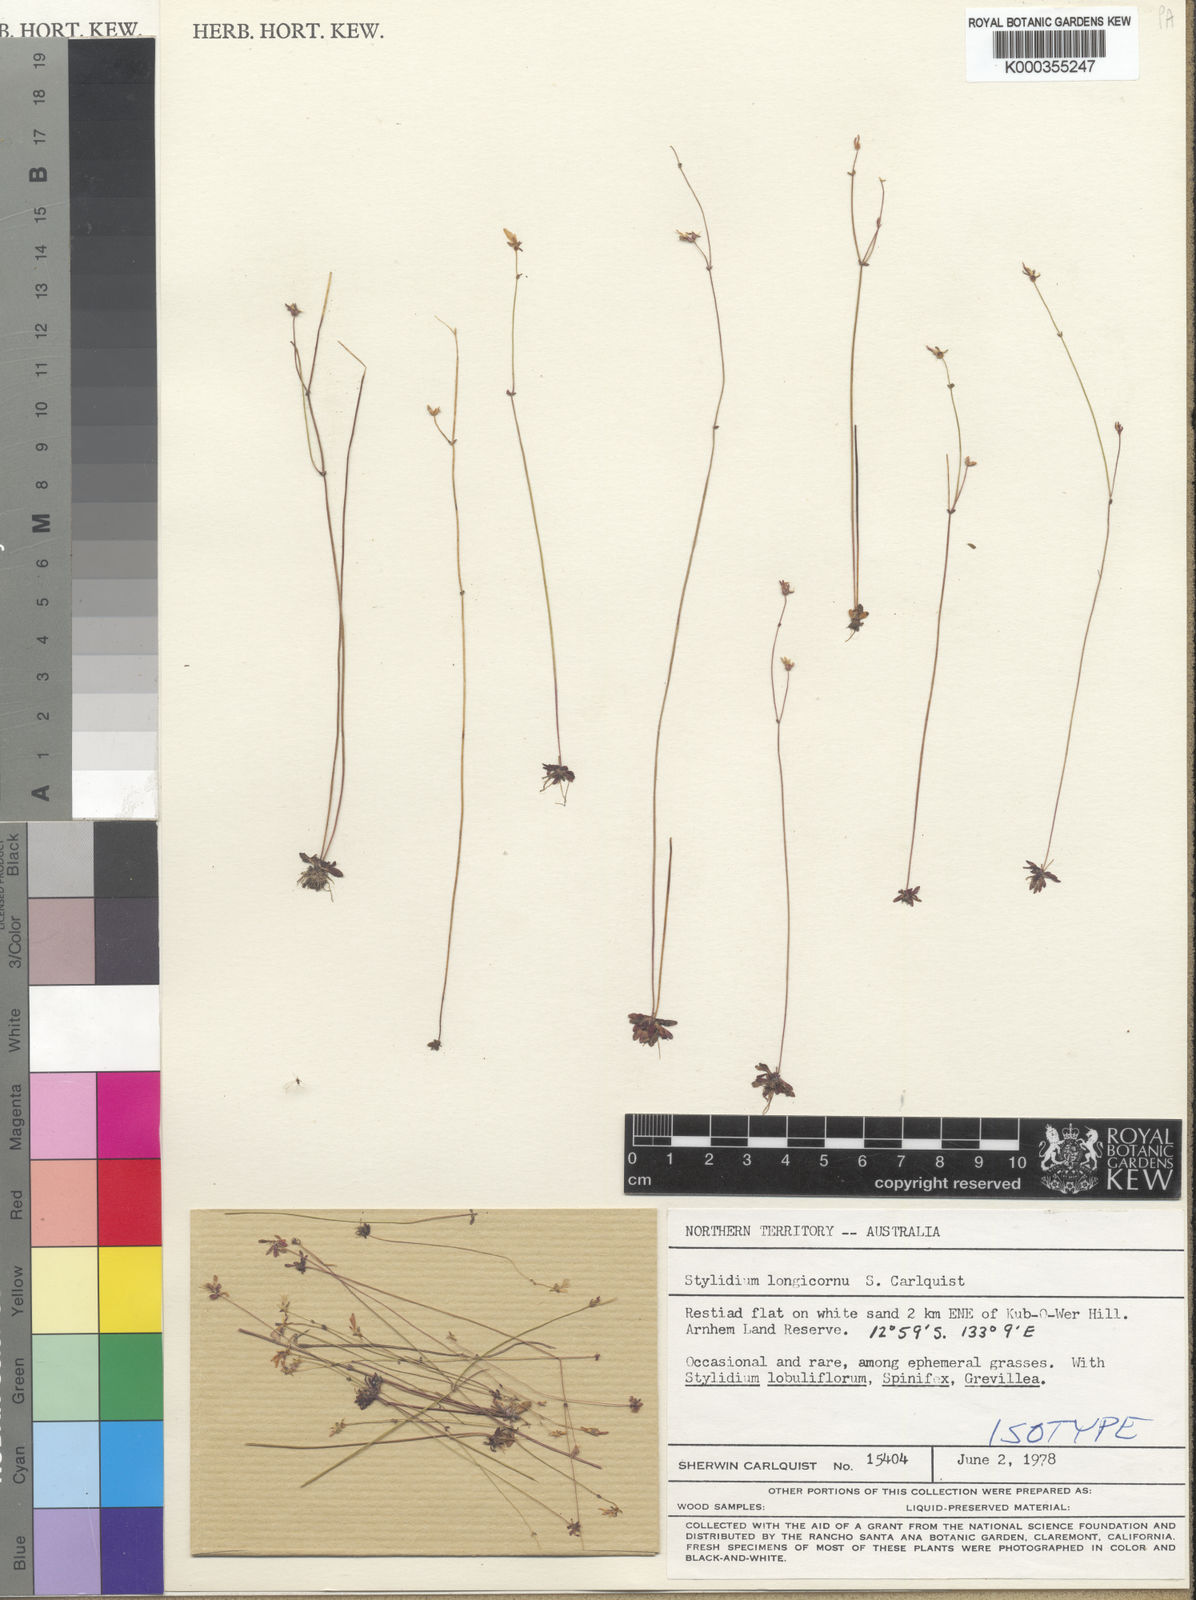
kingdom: Plantae
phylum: Tracheophyta
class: Magnoliopsida
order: Asterales
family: Stylidiaceae
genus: Stylidium
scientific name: Stylidium longicornu
